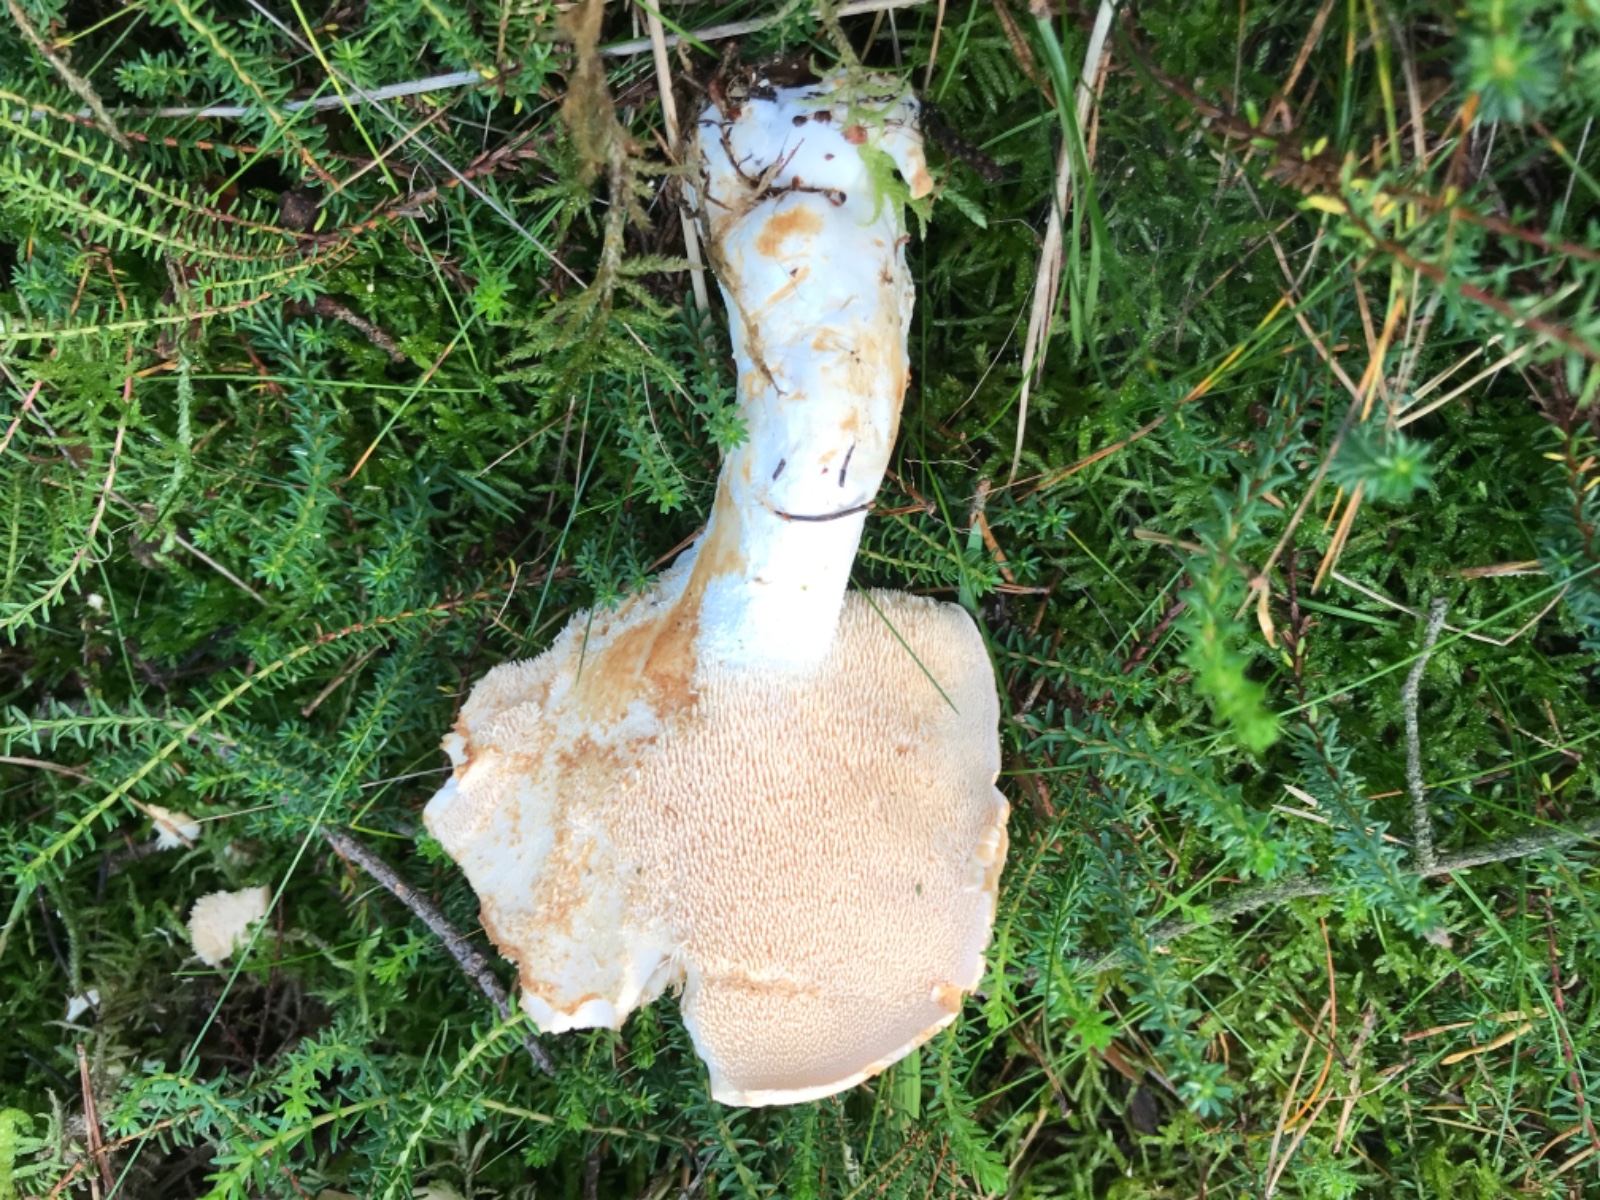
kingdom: Fungi
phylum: Basidiomycota
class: Agaricomycetes
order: Cantharellales
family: Hydnaceae
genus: Hydnum
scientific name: Hydnum repandum
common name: almindelig pigsvamp
